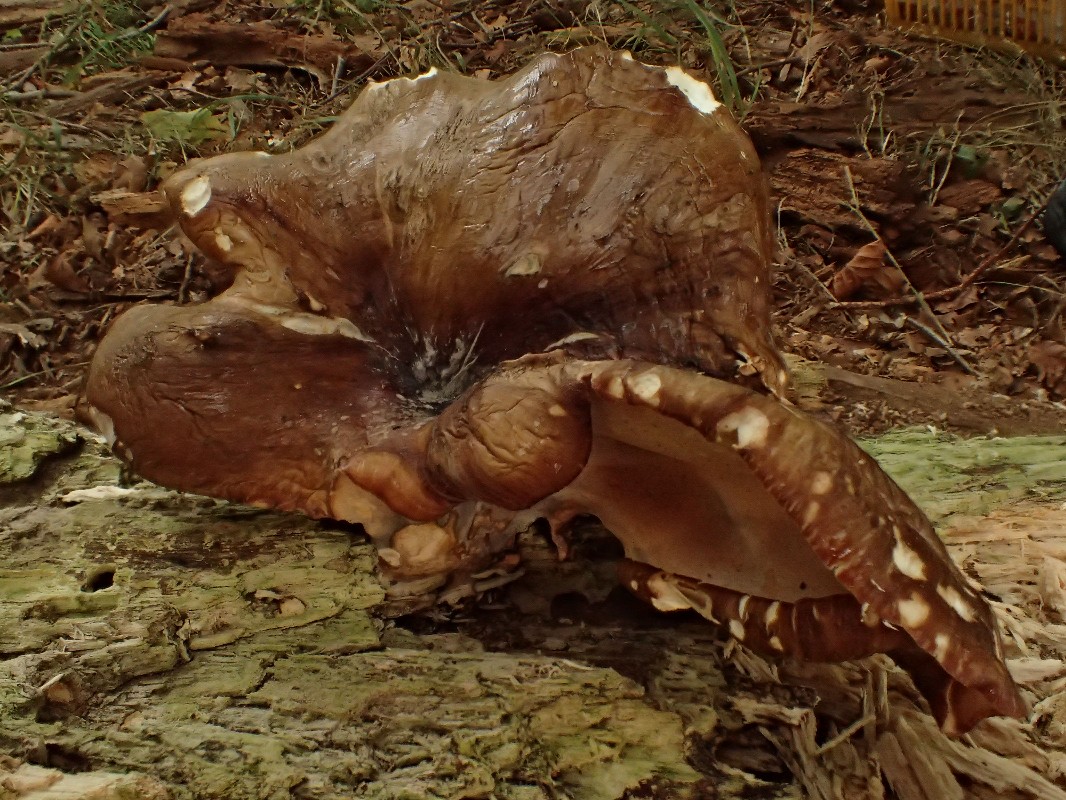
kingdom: Fungi
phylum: Basidiomycota
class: Agaricomycetes
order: Polyporales
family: Polyporaceae
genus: Picipes
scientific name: Picipes badius
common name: kastaniebrun stilkporesvamp
